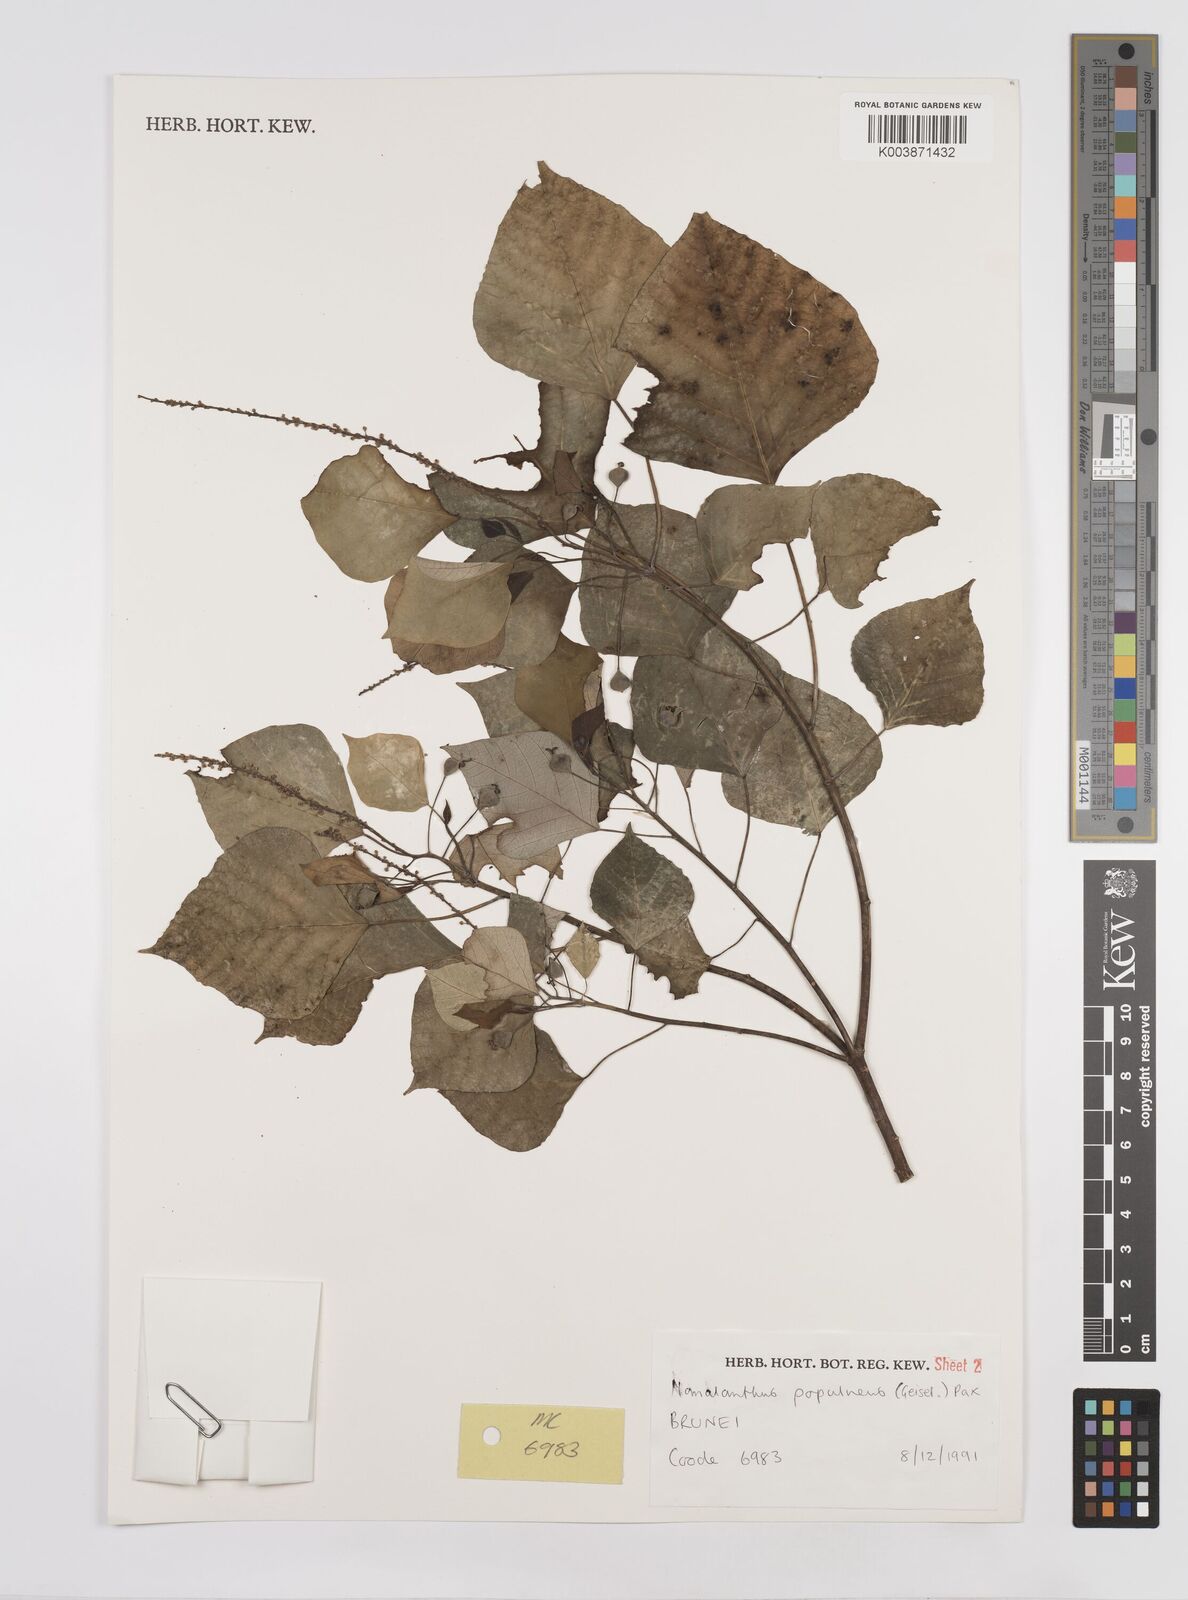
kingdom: Plantae
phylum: Tracheophyta
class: Magnoliopsida
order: Malpighiales
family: Euphorbiaceae
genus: Homalanthus
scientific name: Homalanthus populneus
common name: Spurge
